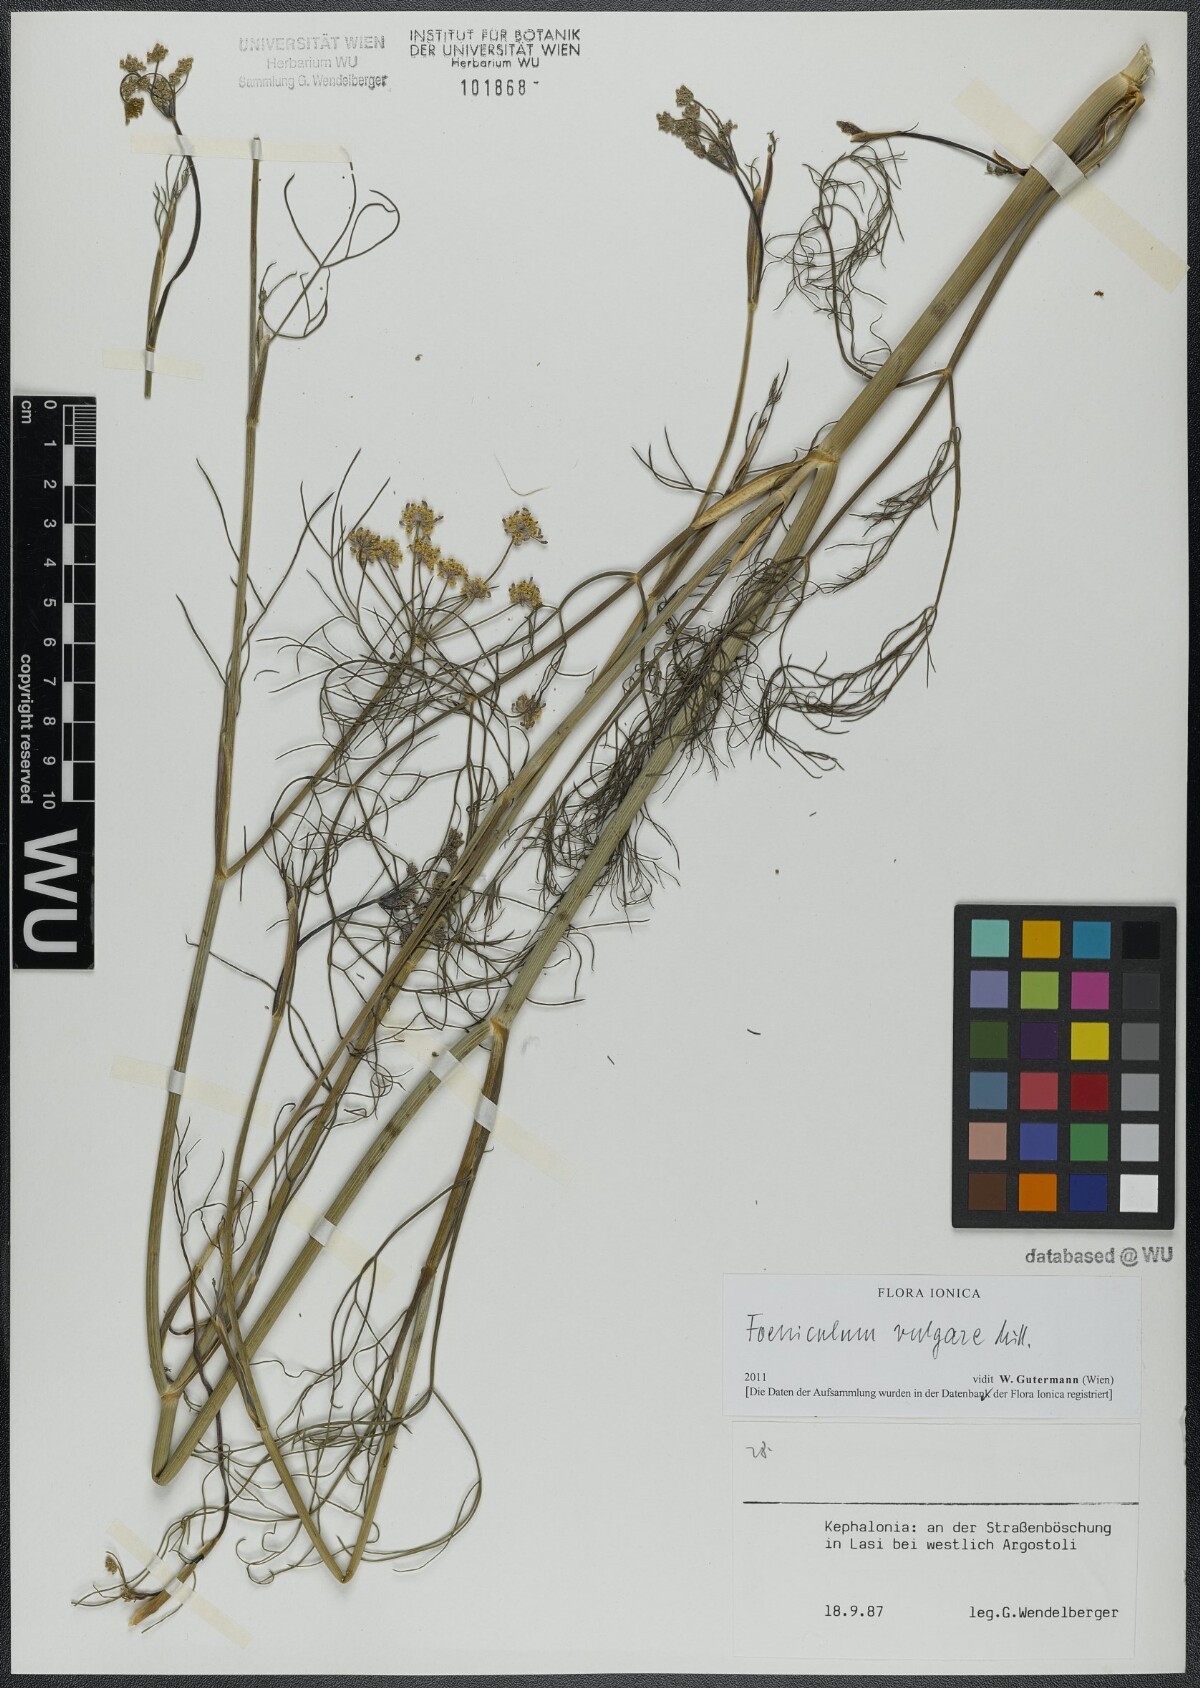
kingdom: Plantae
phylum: Tracheophyta
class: Magnoliopsida
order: Apiales
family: Apiaceae
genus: Foeniculum
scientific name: Foeniculum vulgare
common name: Fennel
